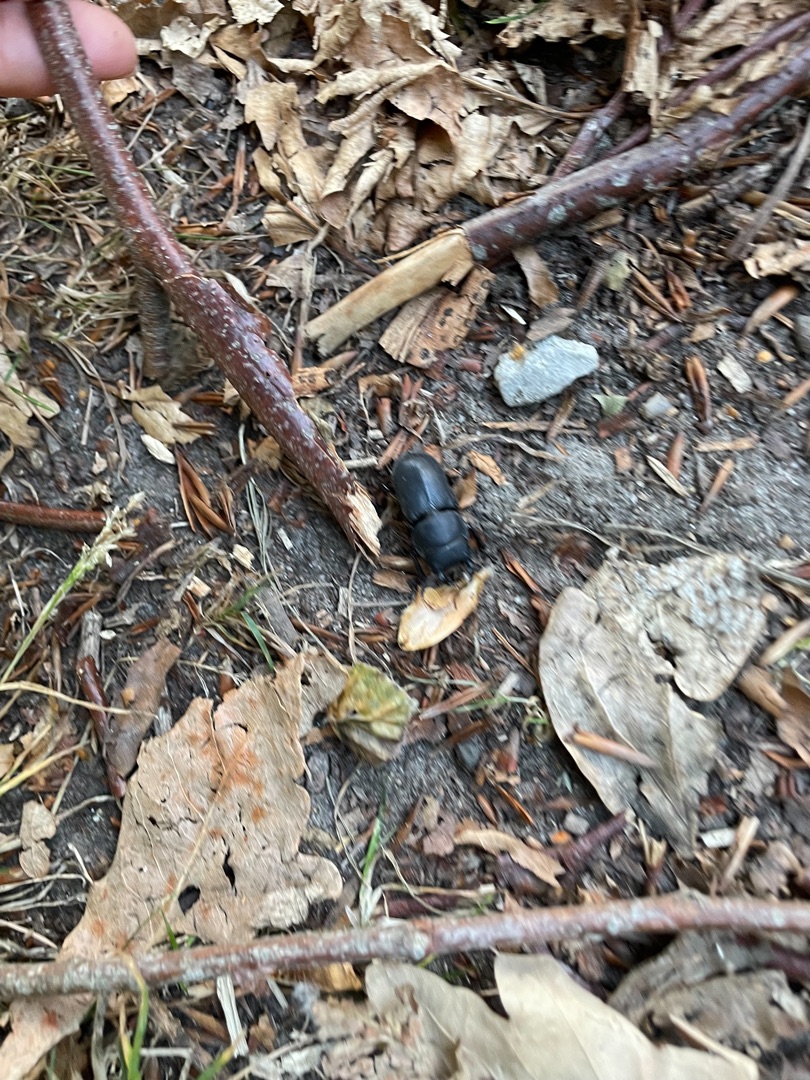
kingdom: Animalia
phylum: Arthropoda
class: Insecta
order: Coleoptera
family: Lucanidae
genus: Dorcus
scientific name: Dorcus parallelipipedus
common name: Bøghjort
